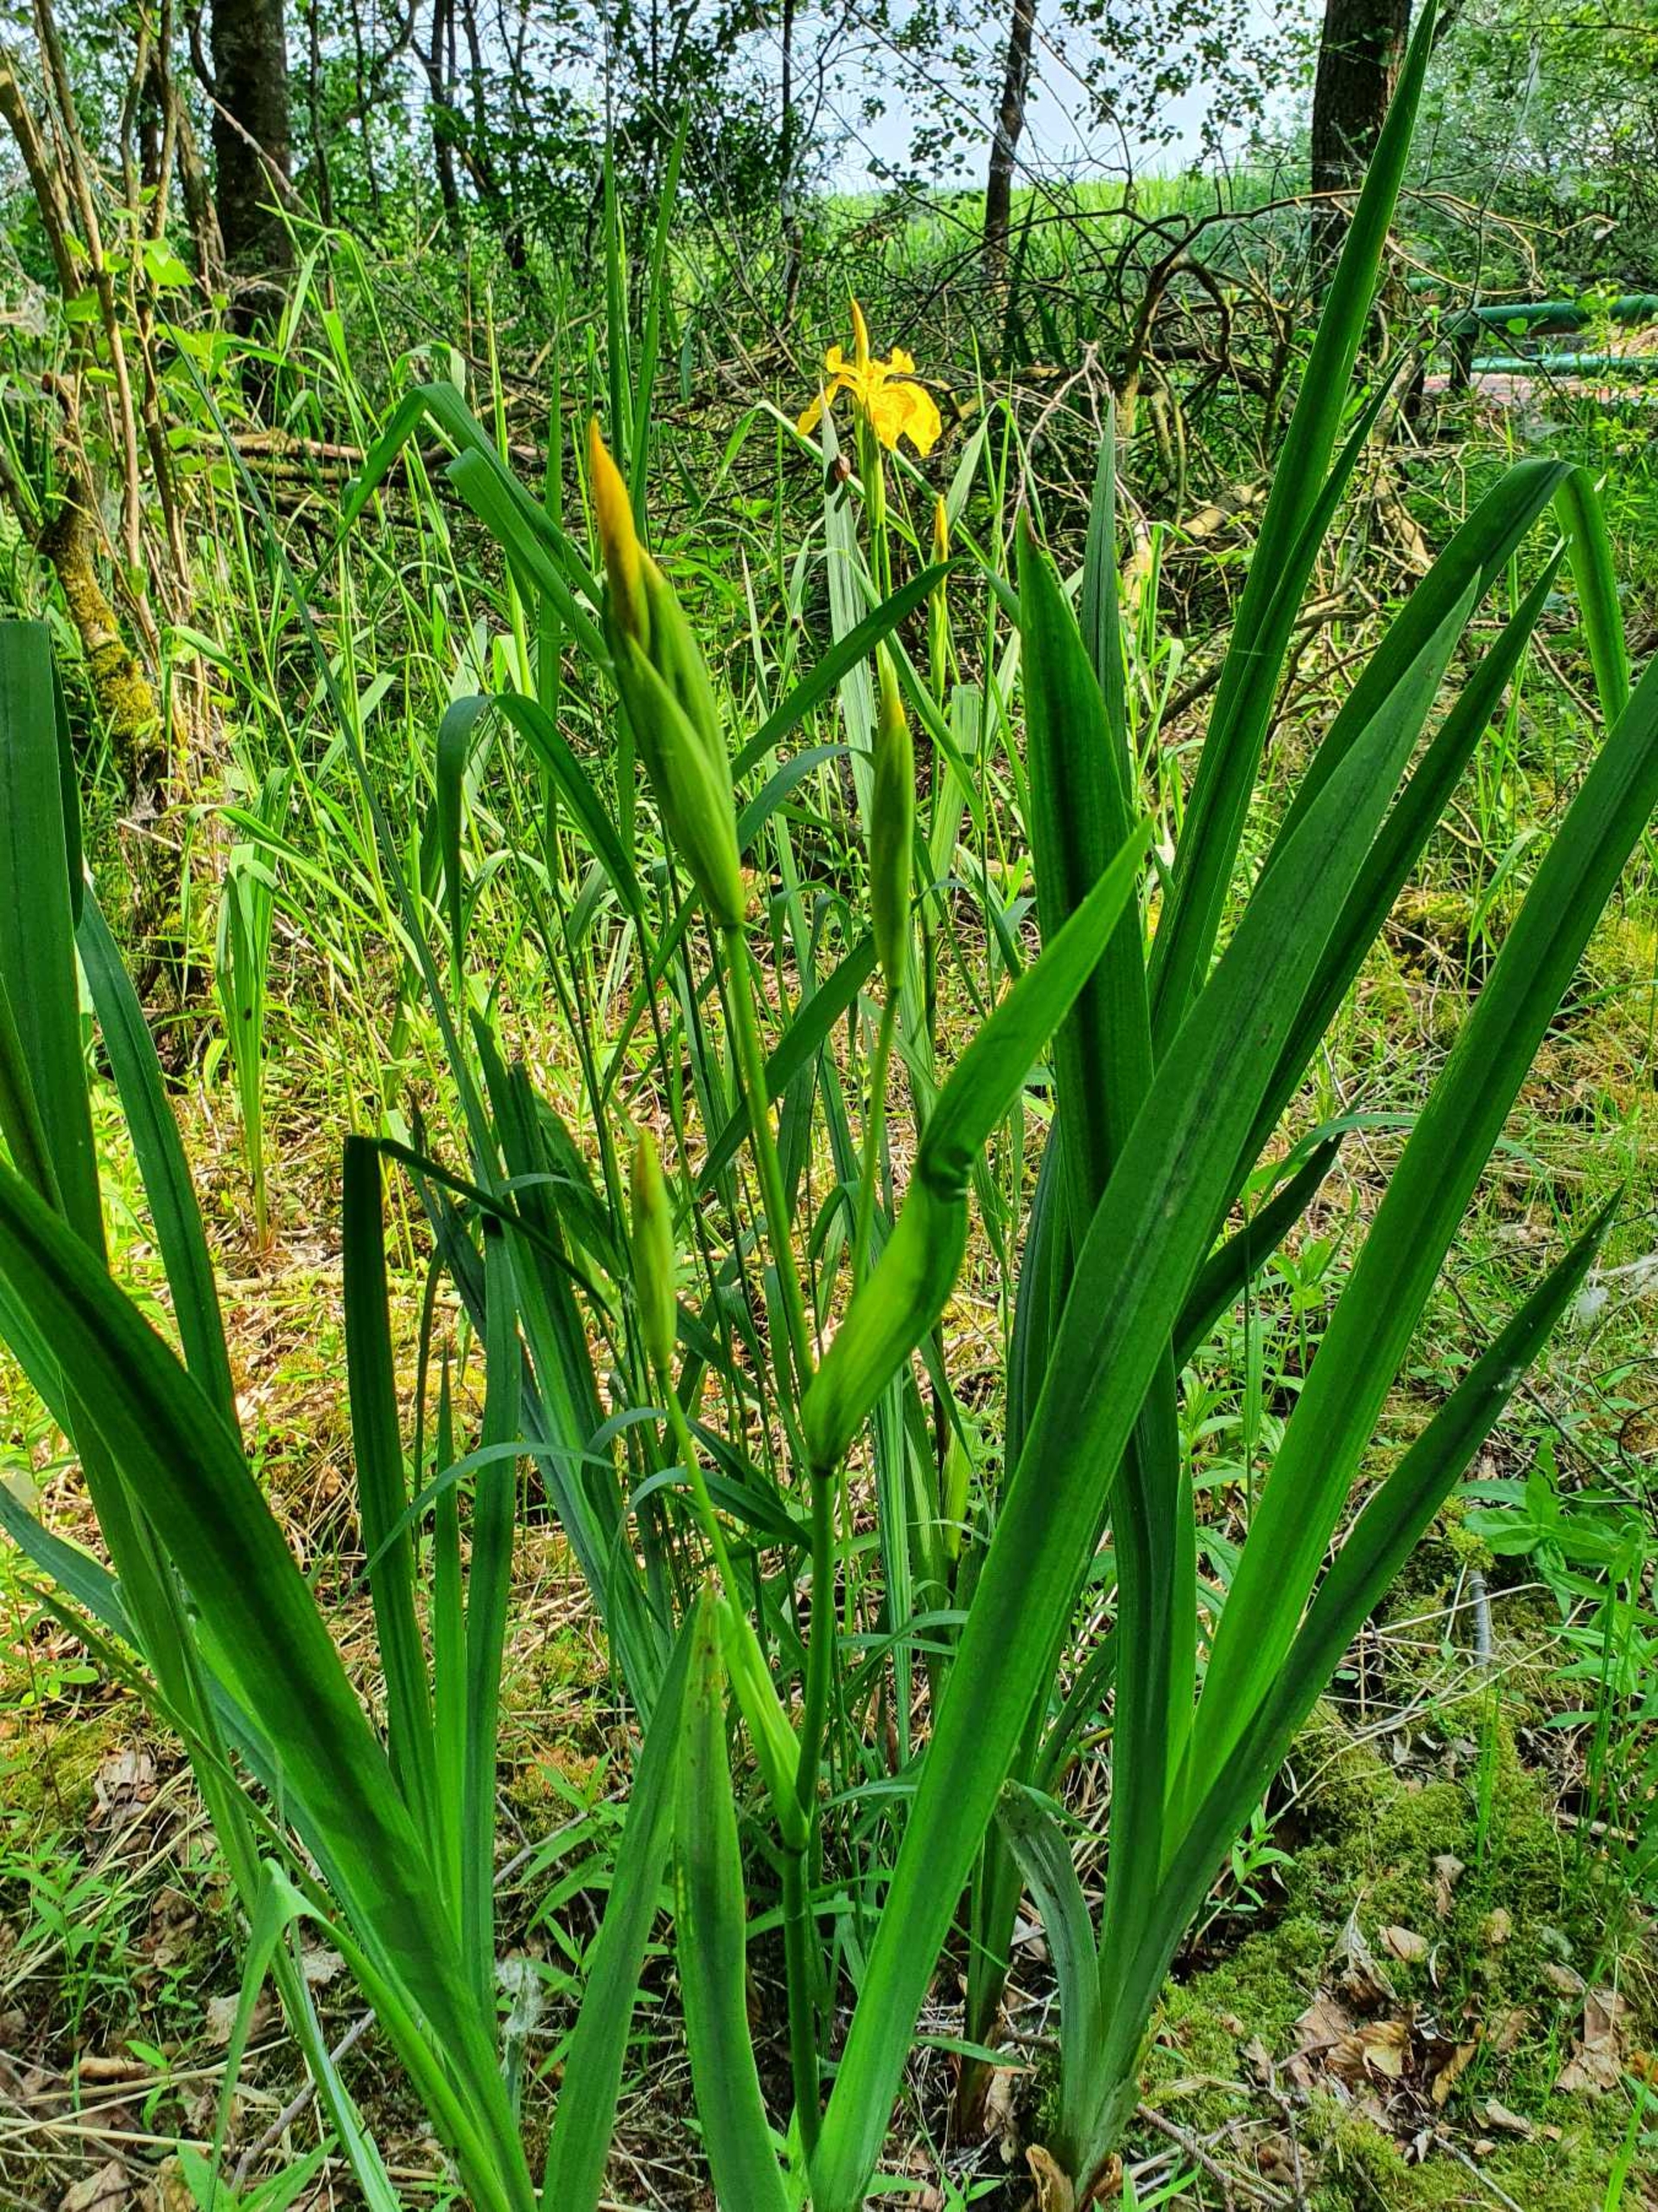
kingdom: Plantae
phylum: Tracheophyta
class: Liliopsida
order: Asparagales
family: Iridaceae
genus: Iris
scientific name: Iris pseudacorus
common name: Gul iris
